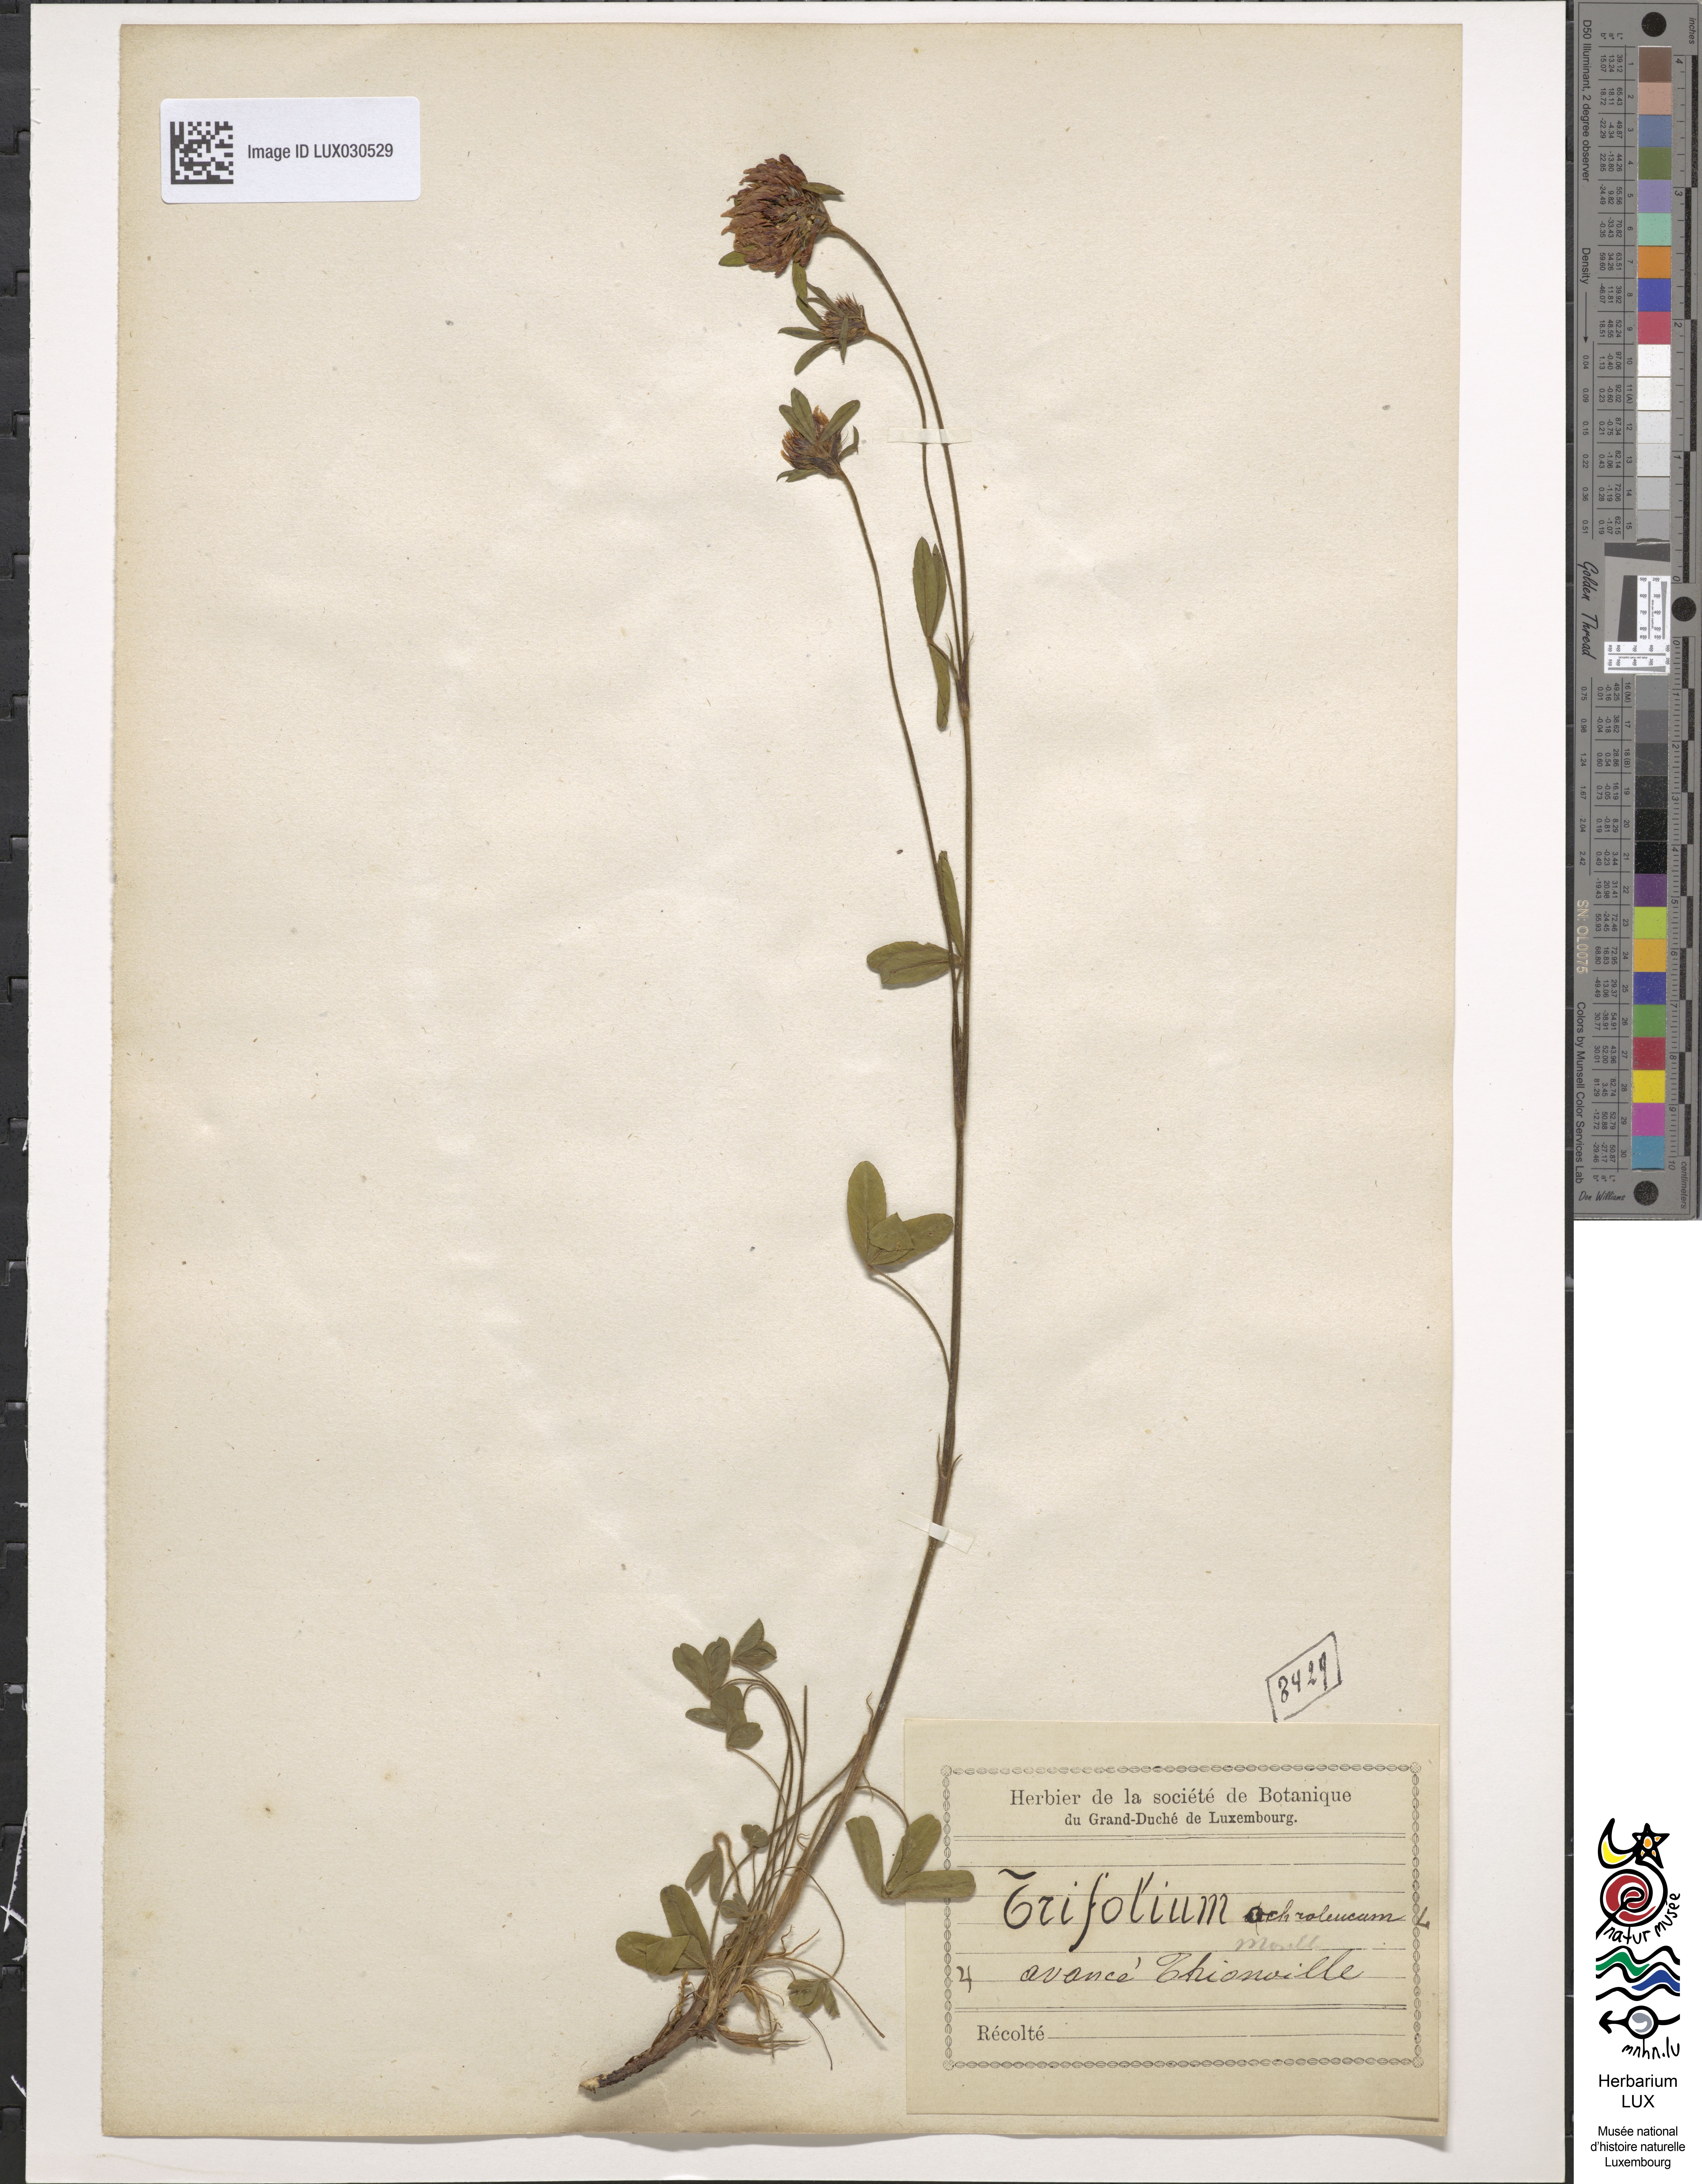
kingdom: Plantae
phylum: Tracheophyta
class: Magnoliopsida
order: Fabales
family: Fabaceae
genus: Trifolium
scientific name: Trifolium ochroleucon
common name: Sulphur clover
